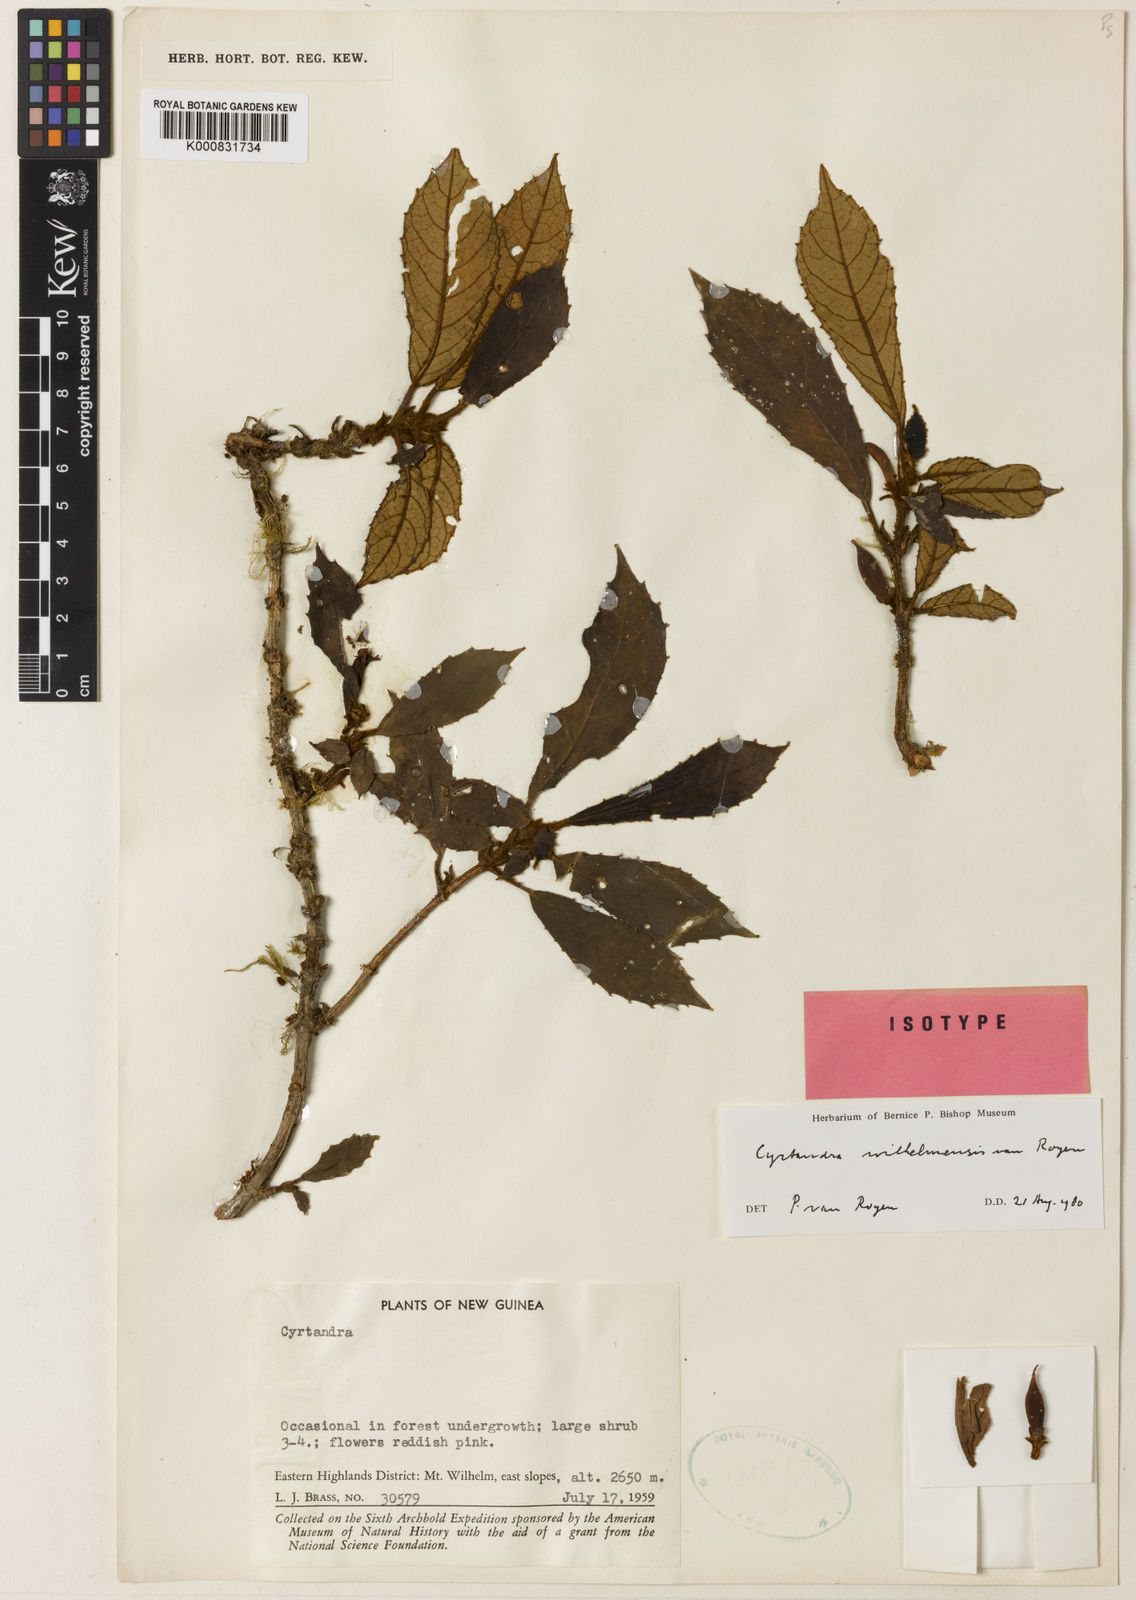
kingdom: Plantae
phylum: Tracheophyta
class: Magnoliopsida
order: Lamiales
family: Gesneriaceae
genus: Cyrtandra
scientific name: Cyrtandra wilhelmensis
